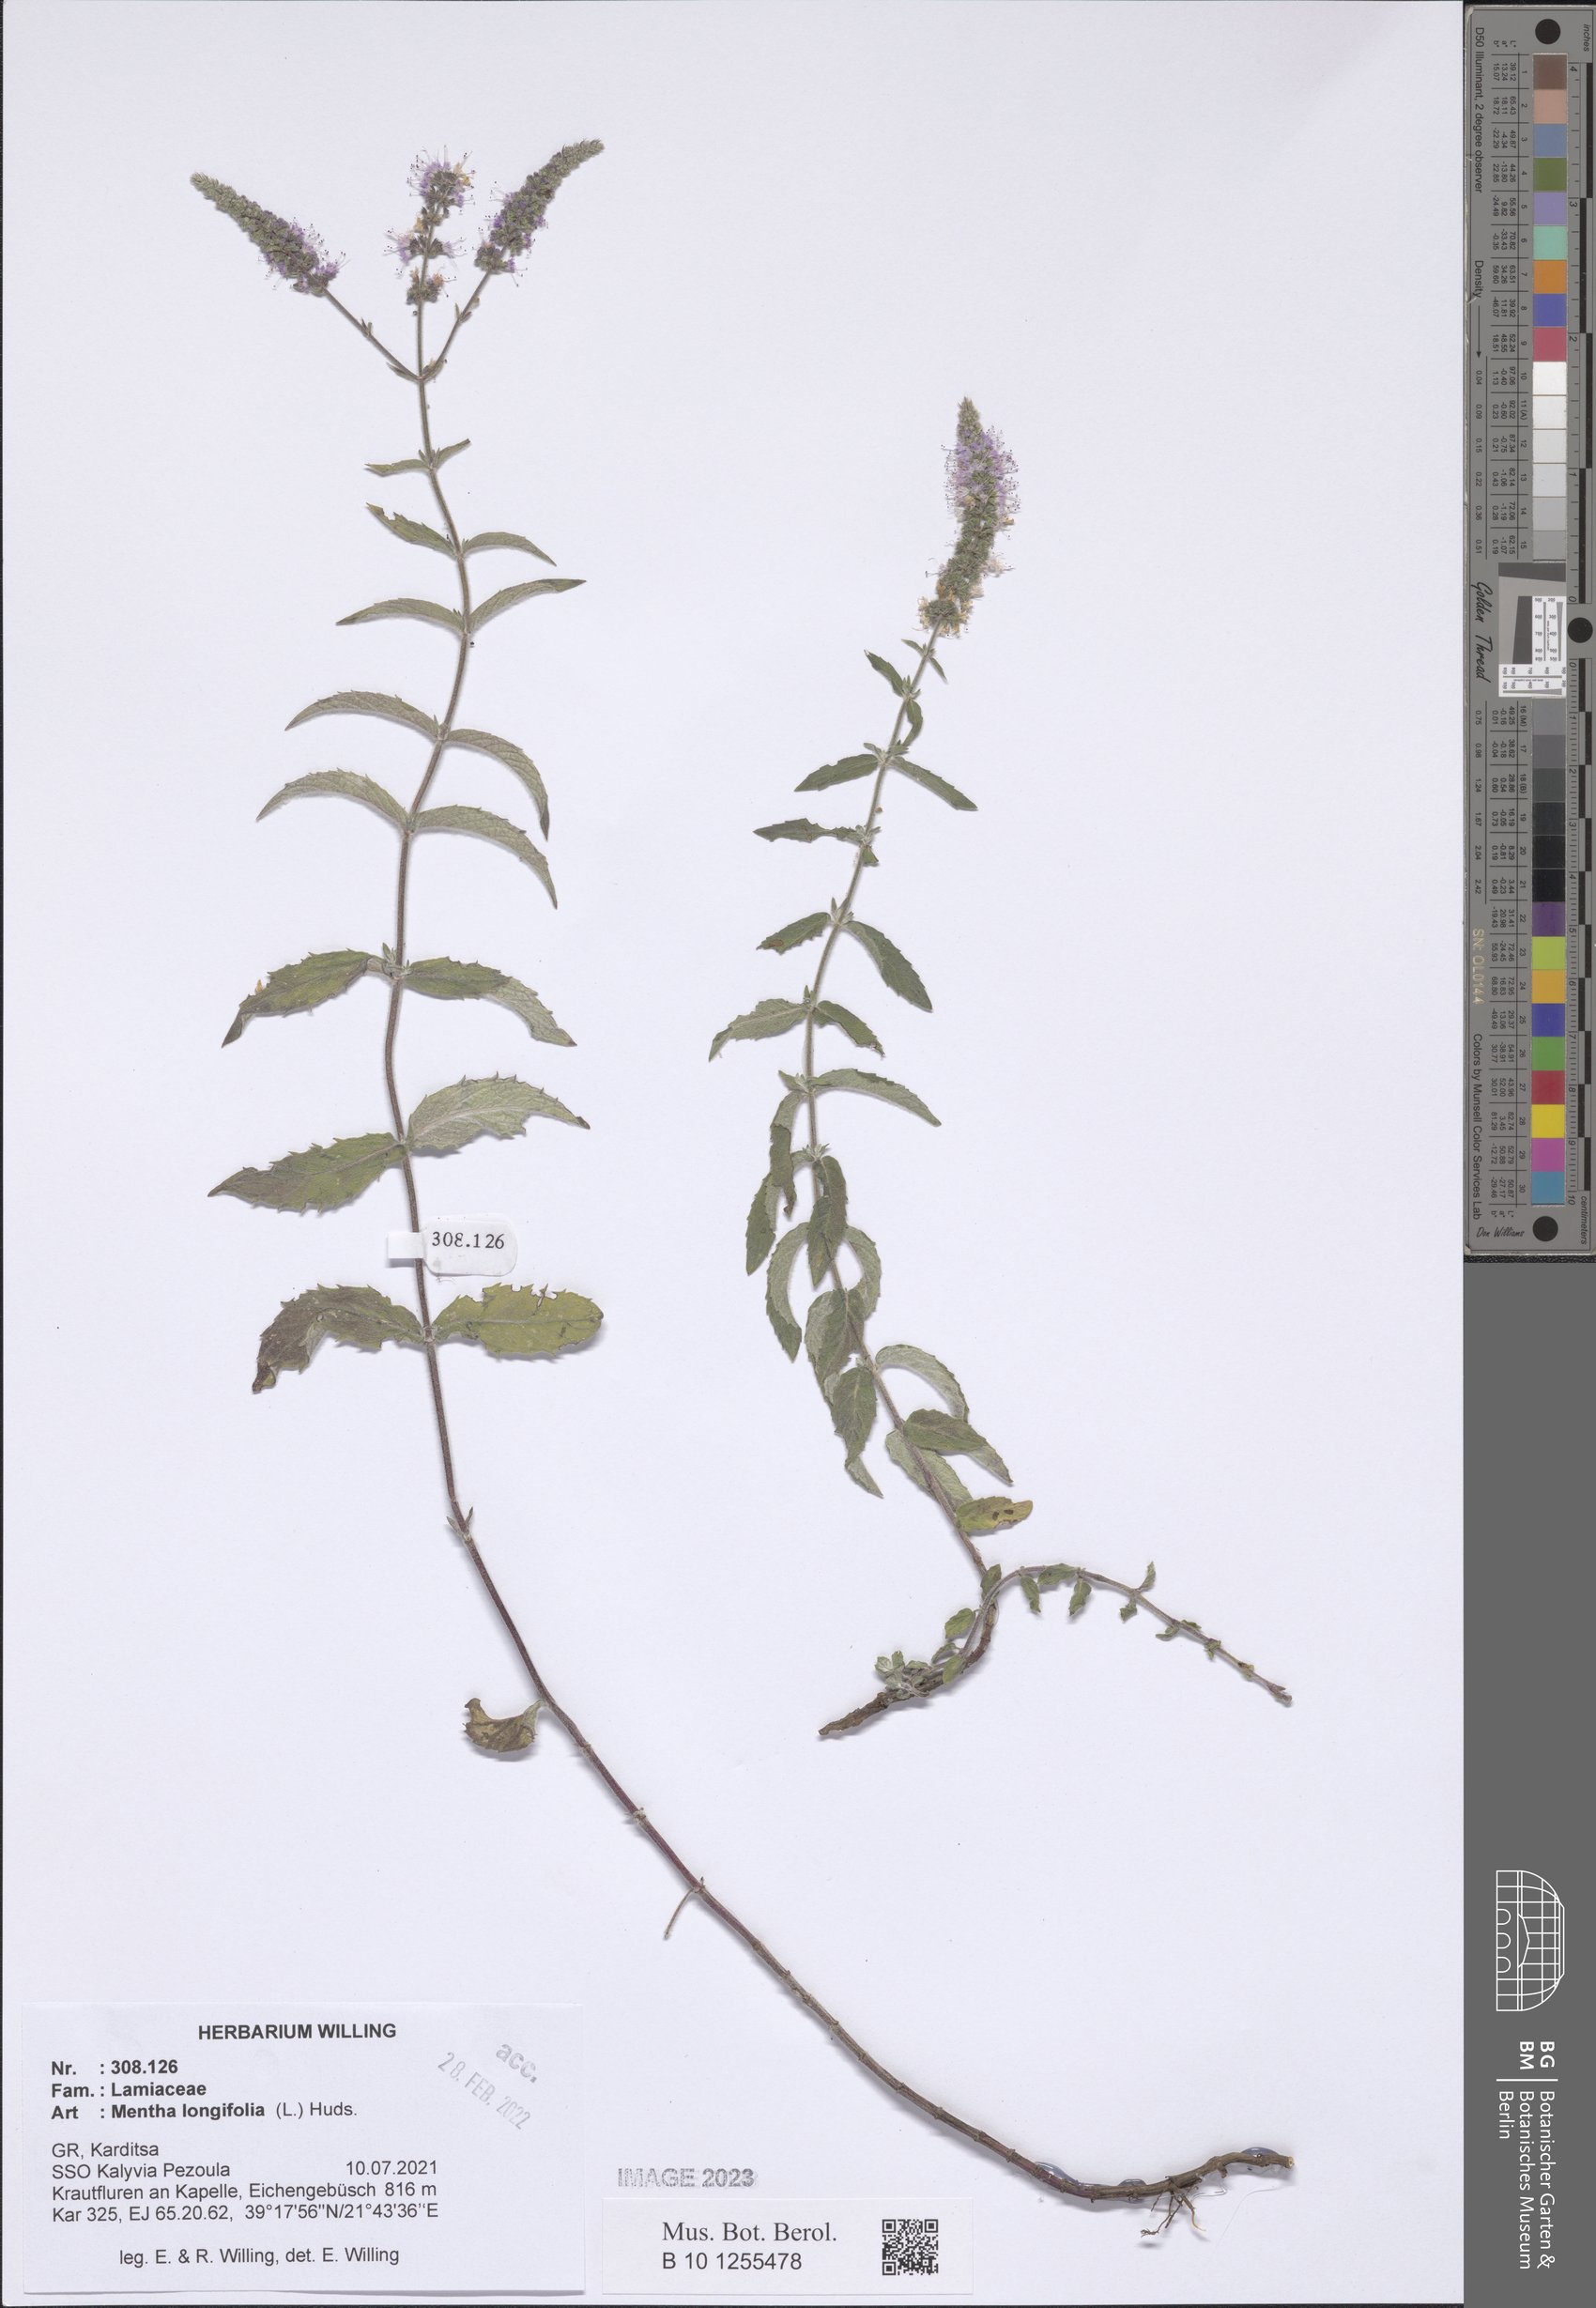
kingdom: Plantae
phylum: Tracheophyta
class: Magnoliopsida
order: Lamiales
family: Lamiaceae
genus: Mentha
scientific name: Mentha longifolia
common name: Horse mint
